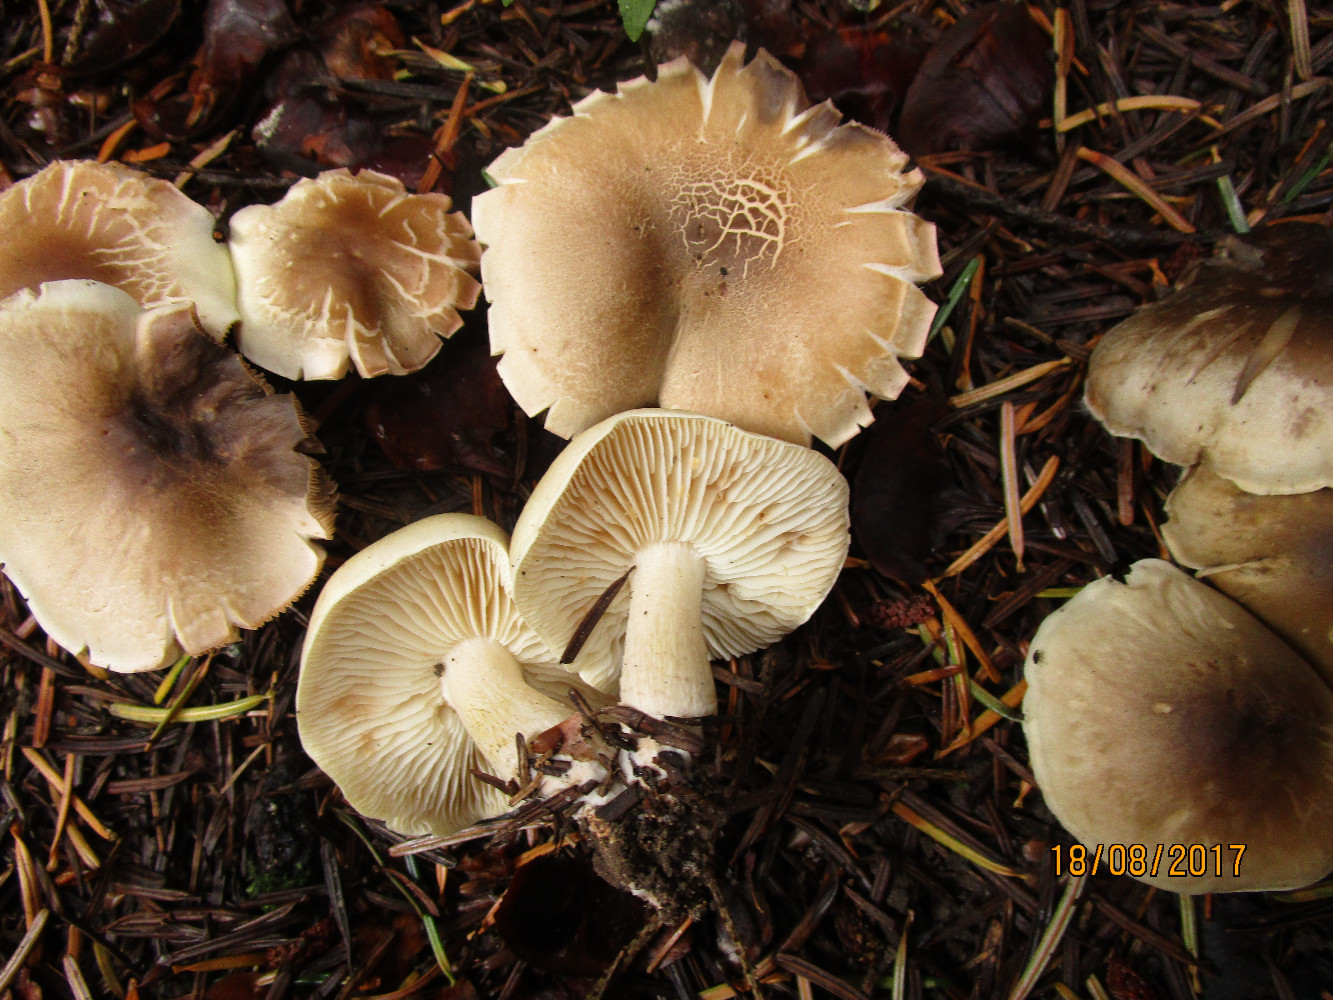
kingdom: Fungi
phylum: Basidiomycota
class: Agaricomycetes
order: Agaricales
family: Tricholomataceae
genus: Tricholoma
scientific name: Tricholoma saponaceum
